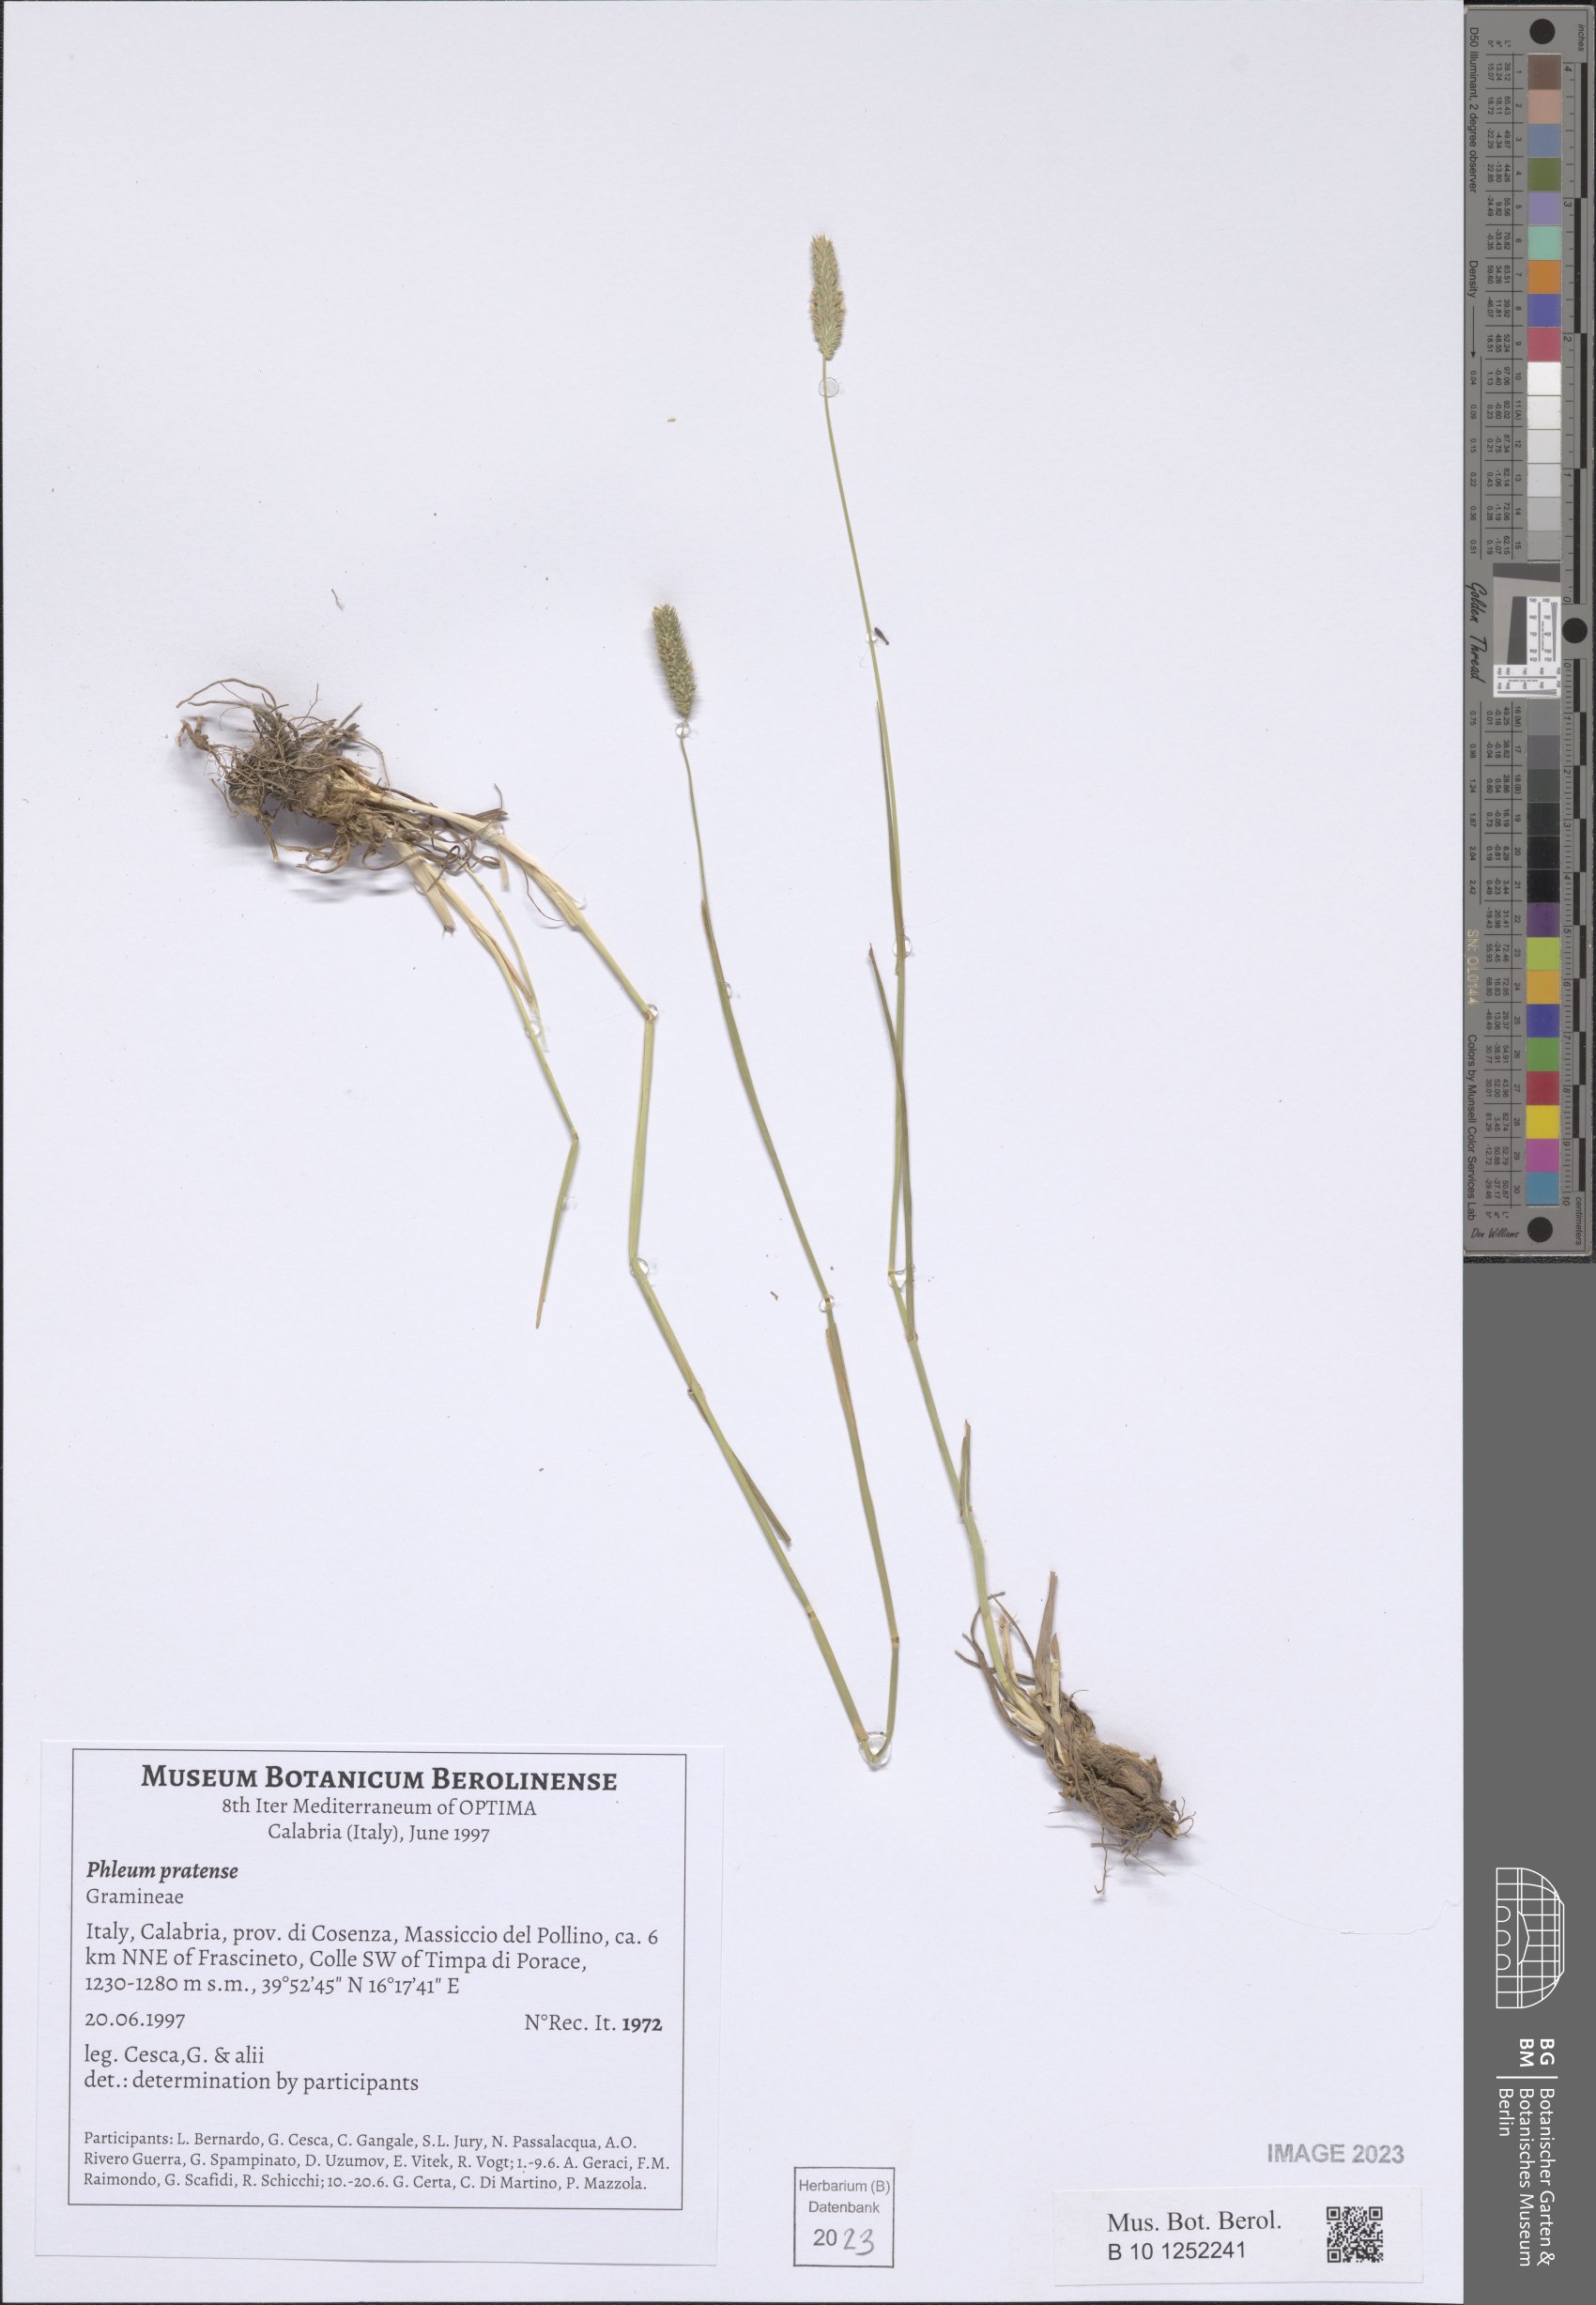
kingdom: Plantae
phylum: Tracheophyta
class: Liliopsida
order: Poales
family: Poaceae
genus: Phleum
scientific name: Phleum pratense
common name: Timothy grass
